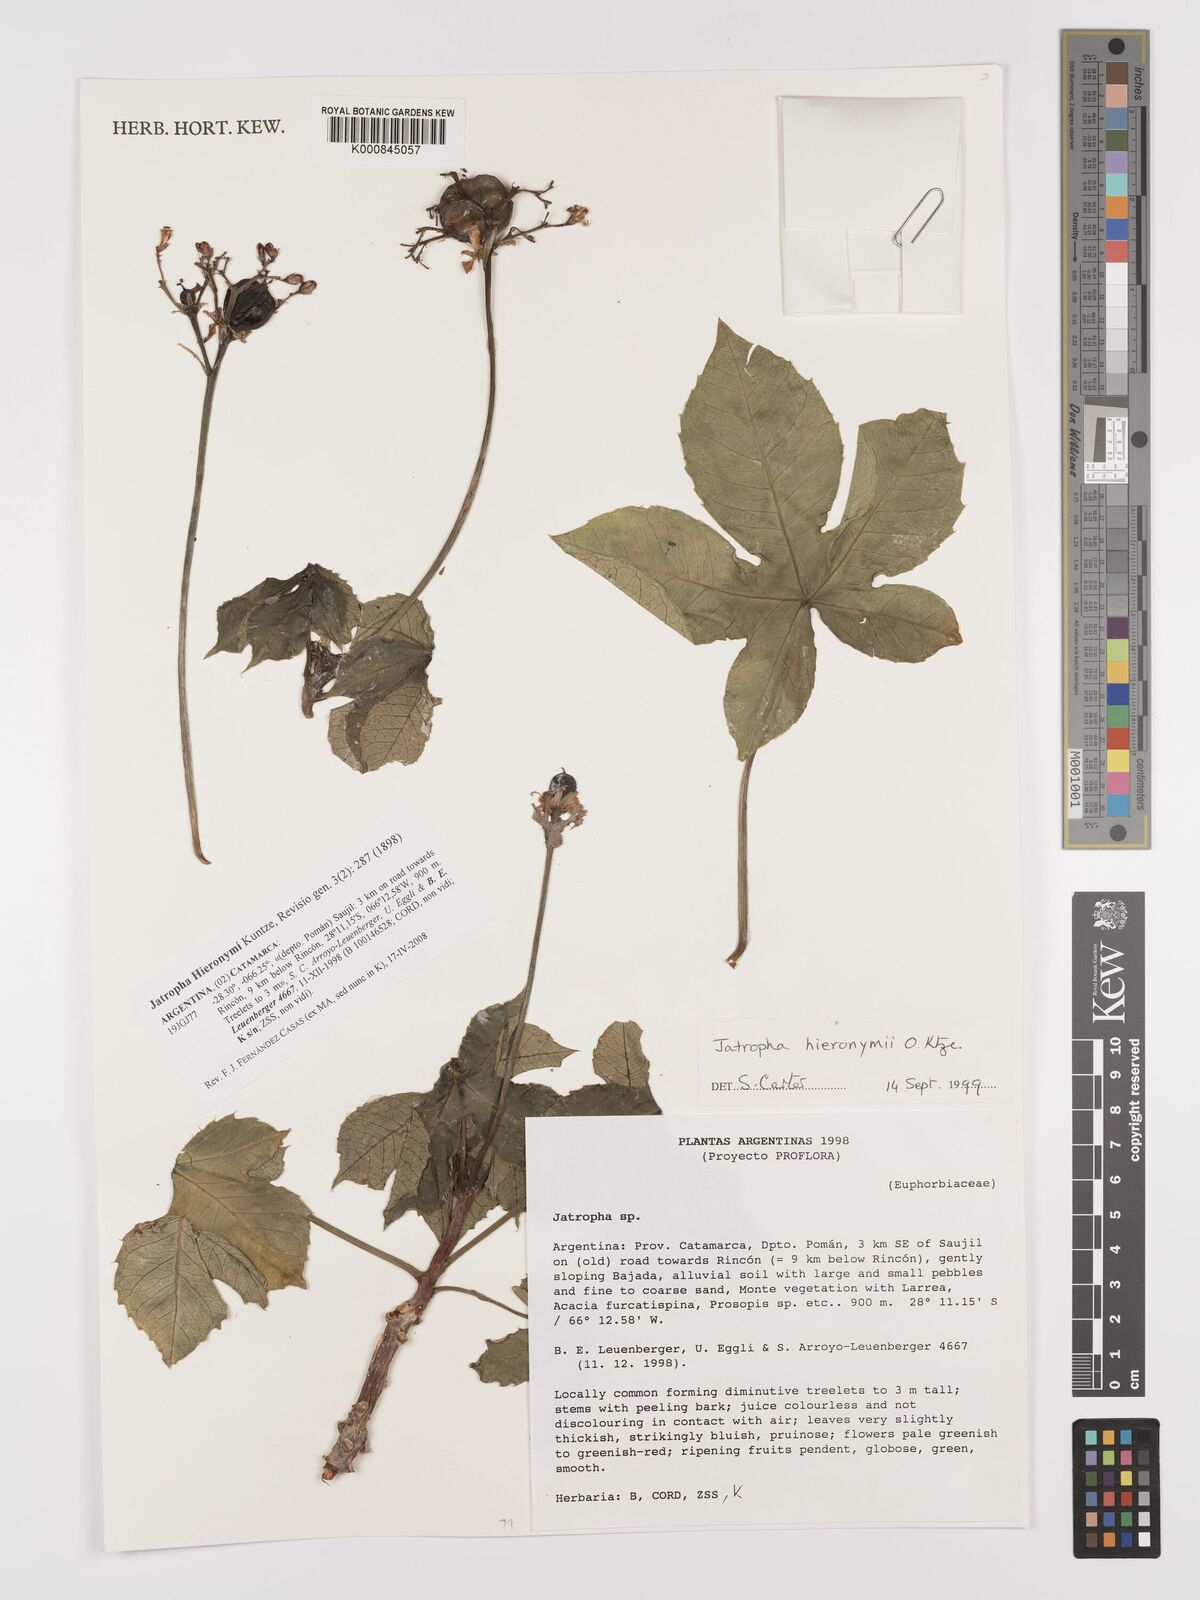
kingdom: Plantae
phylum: Tracheophyta
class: Magnoliopsida
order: Malpighiales
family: Euphorbiaceae
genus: Jatropha
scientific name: Jatropha hieronymi
